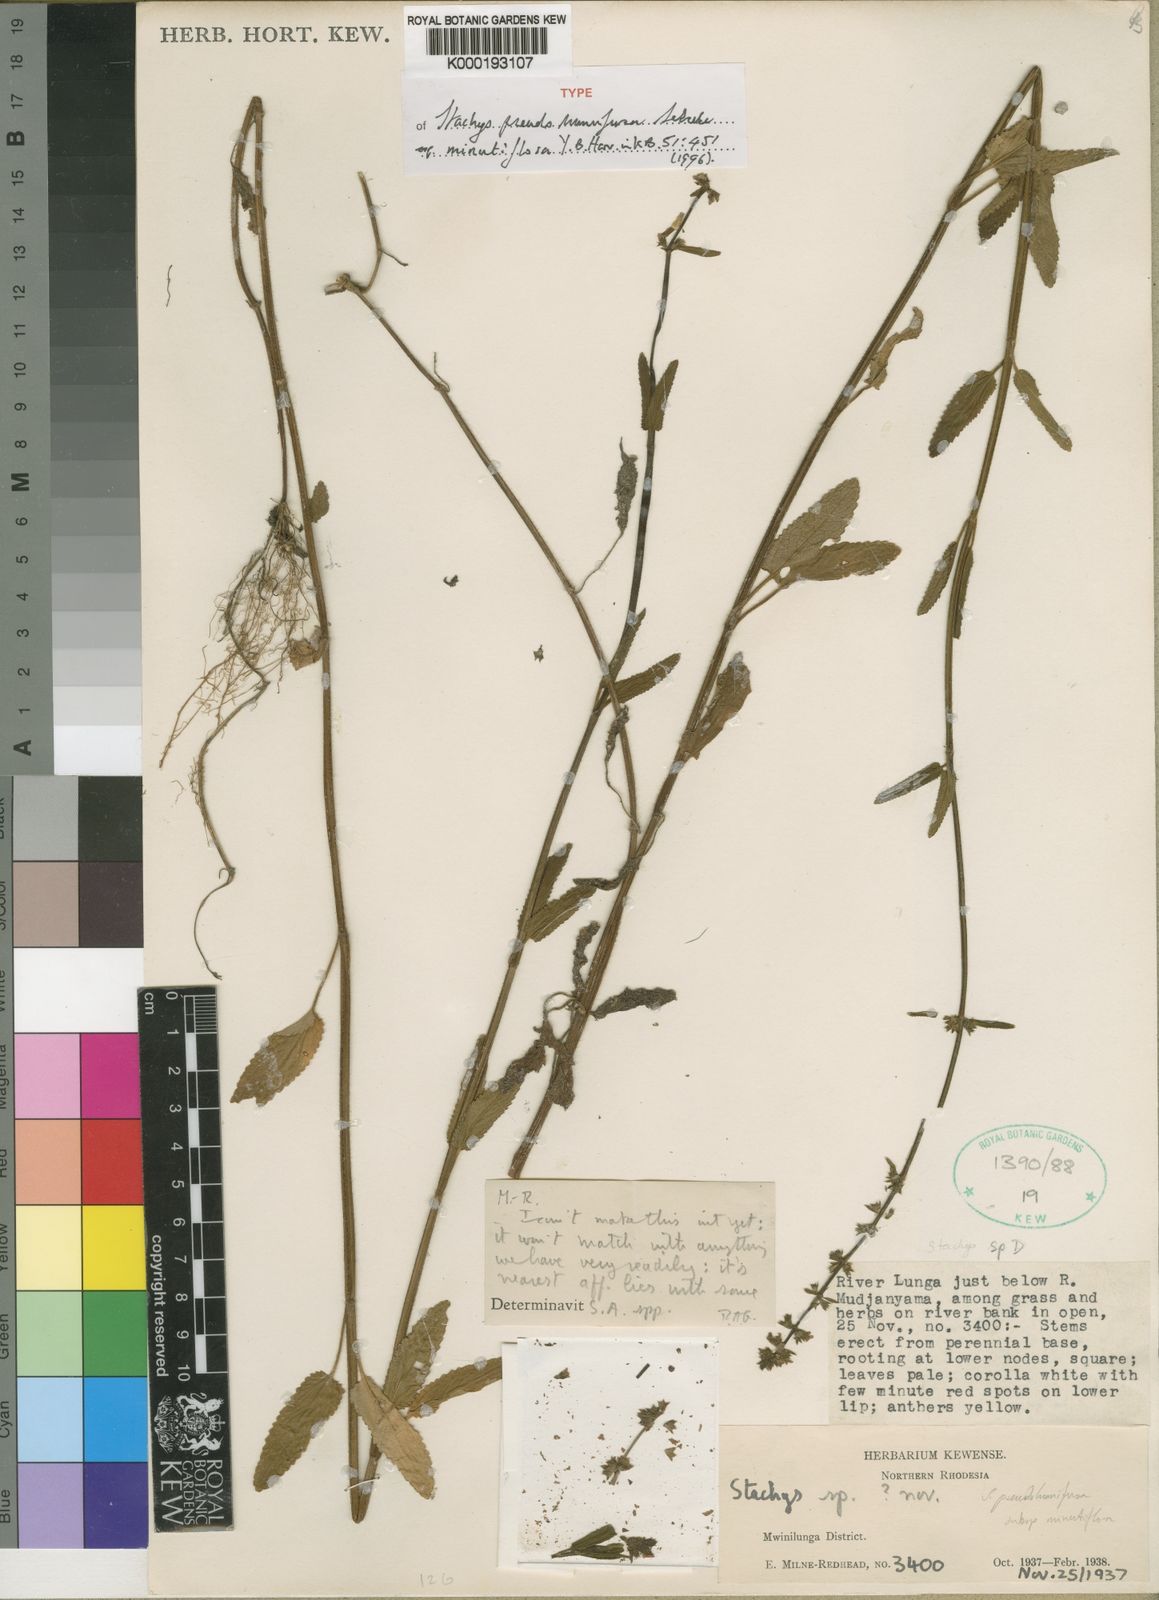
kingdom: Plantae
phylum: Tracheophyta
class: Magnoliopsida
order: Lamiales
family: Lamiaceae
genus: Stachys
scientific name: Stachys pseudohumifusa
